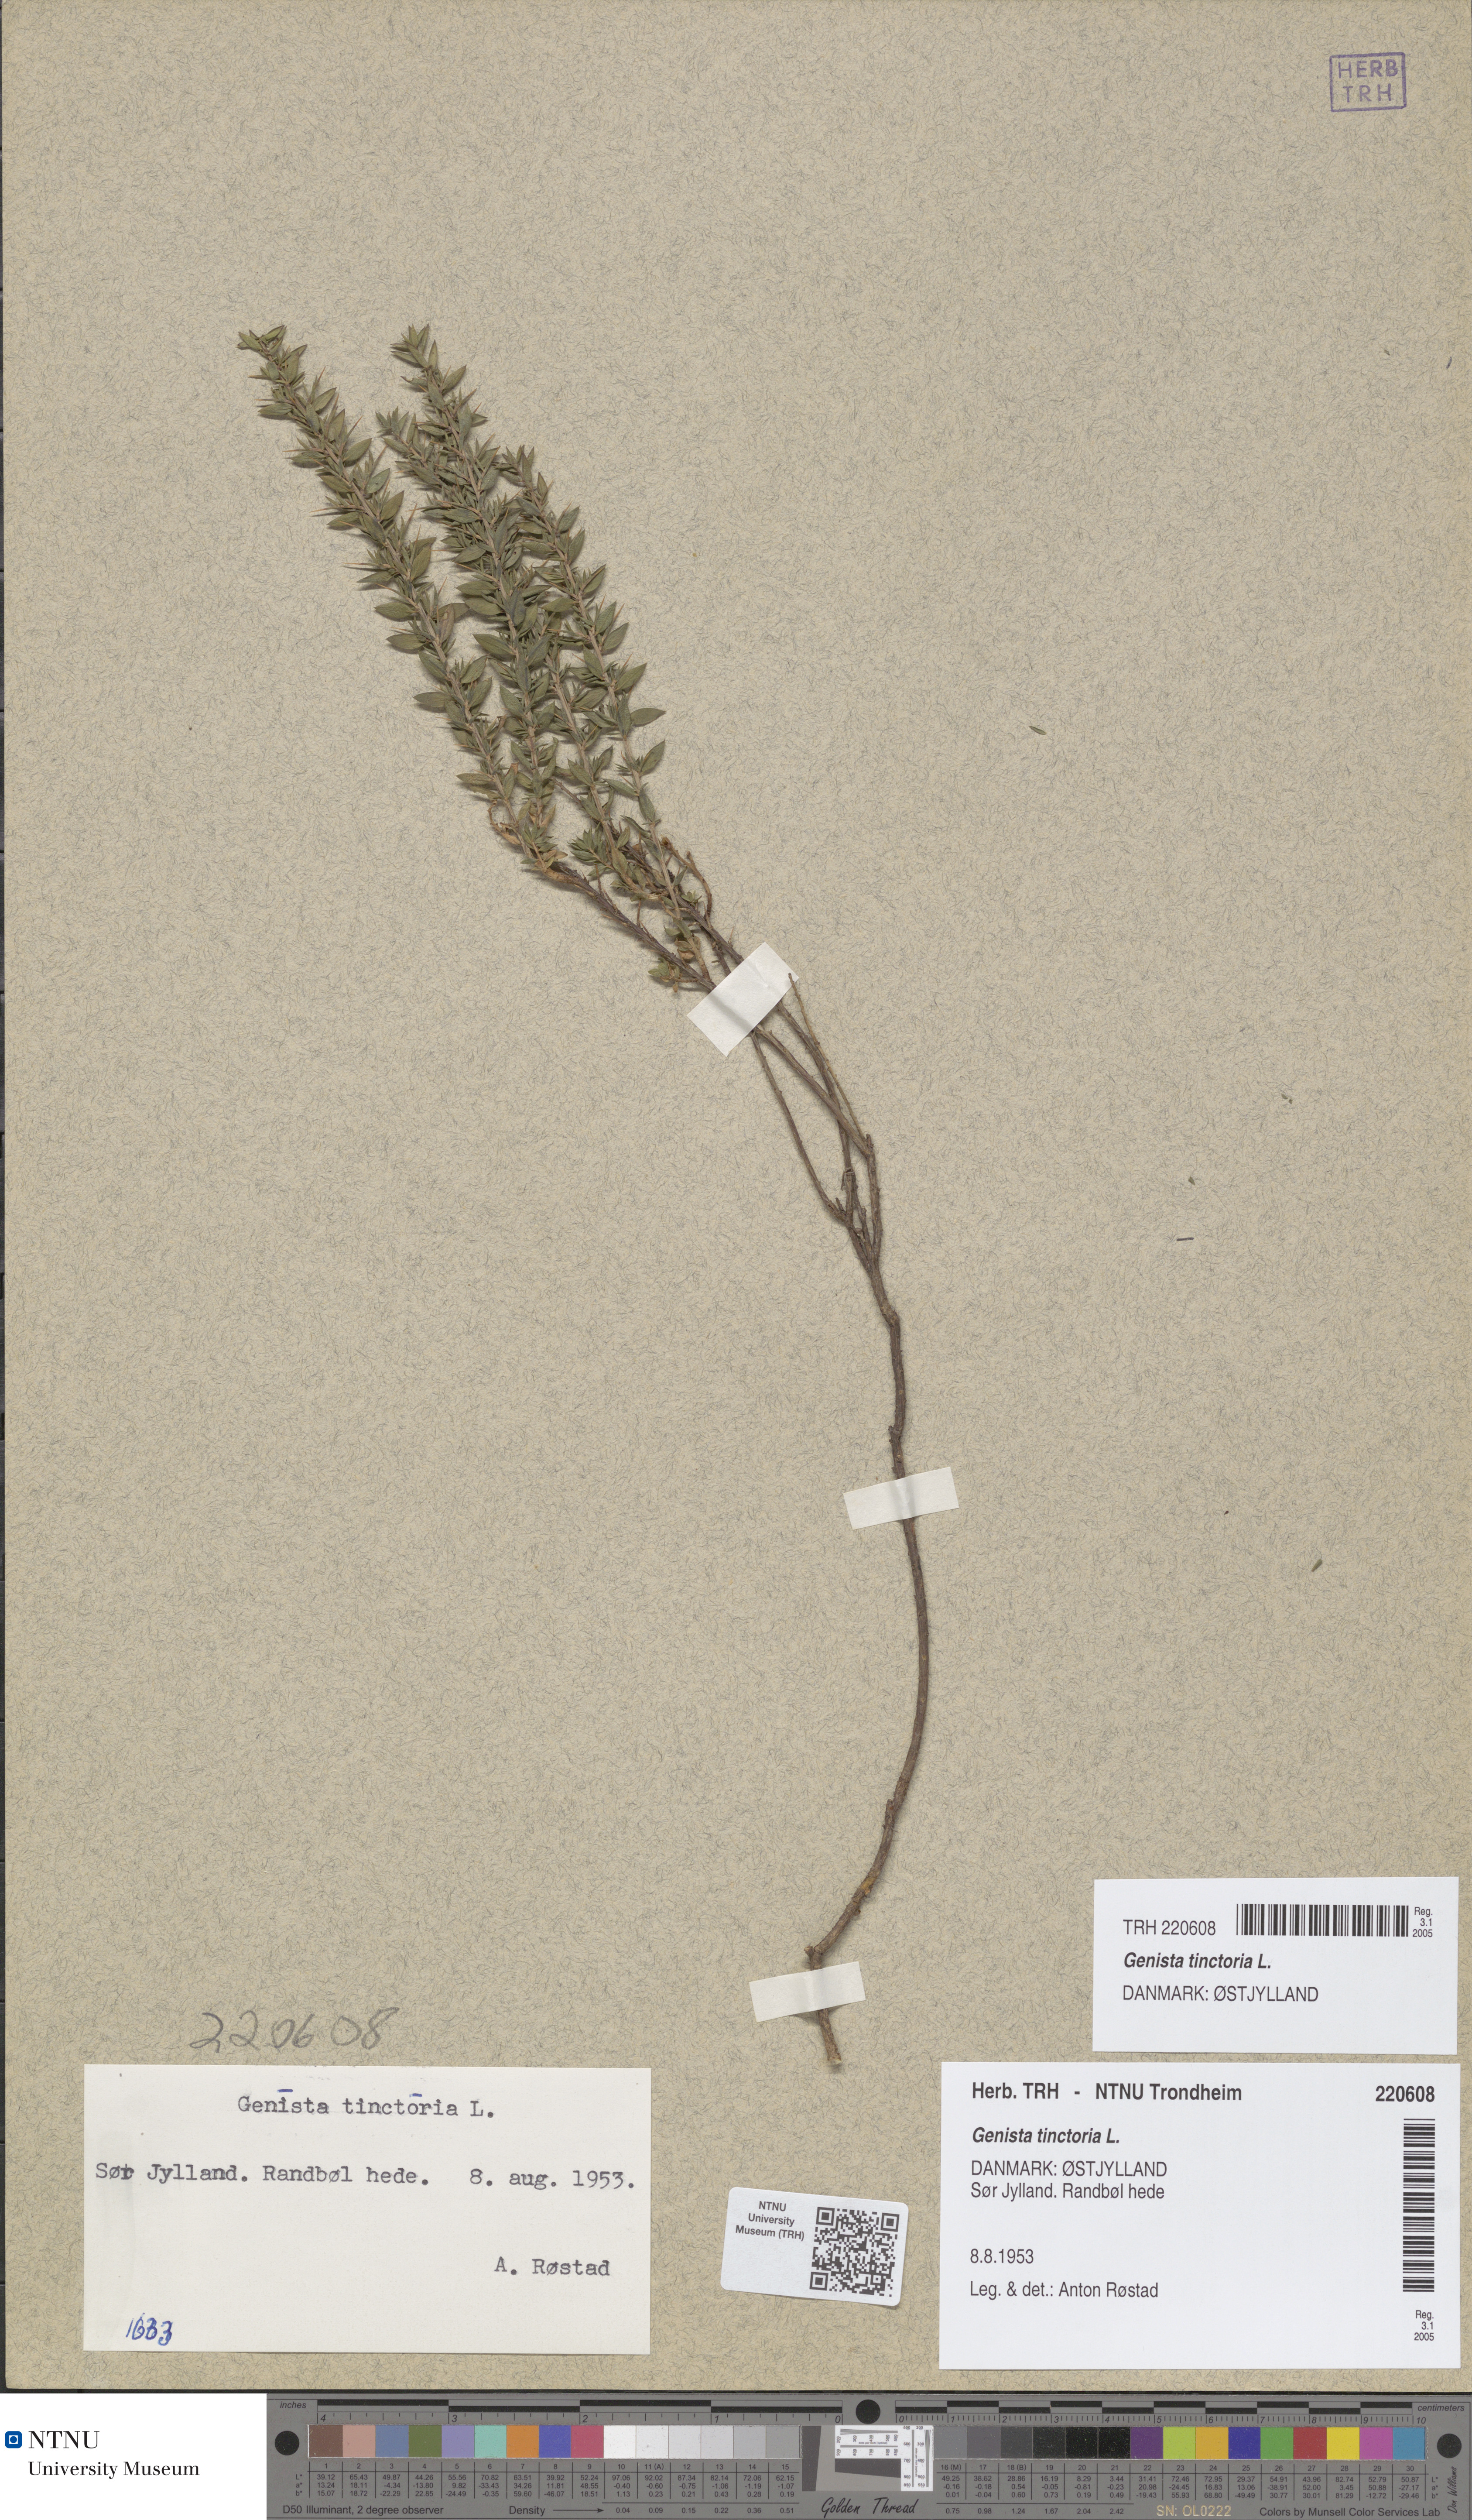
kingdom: Plantae
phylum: Tracheophyta
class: Magnoliopsida
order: Fabales
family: Fabaceae
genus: Genista
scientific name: Genista tinctoria
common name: Dyer's greenweed
